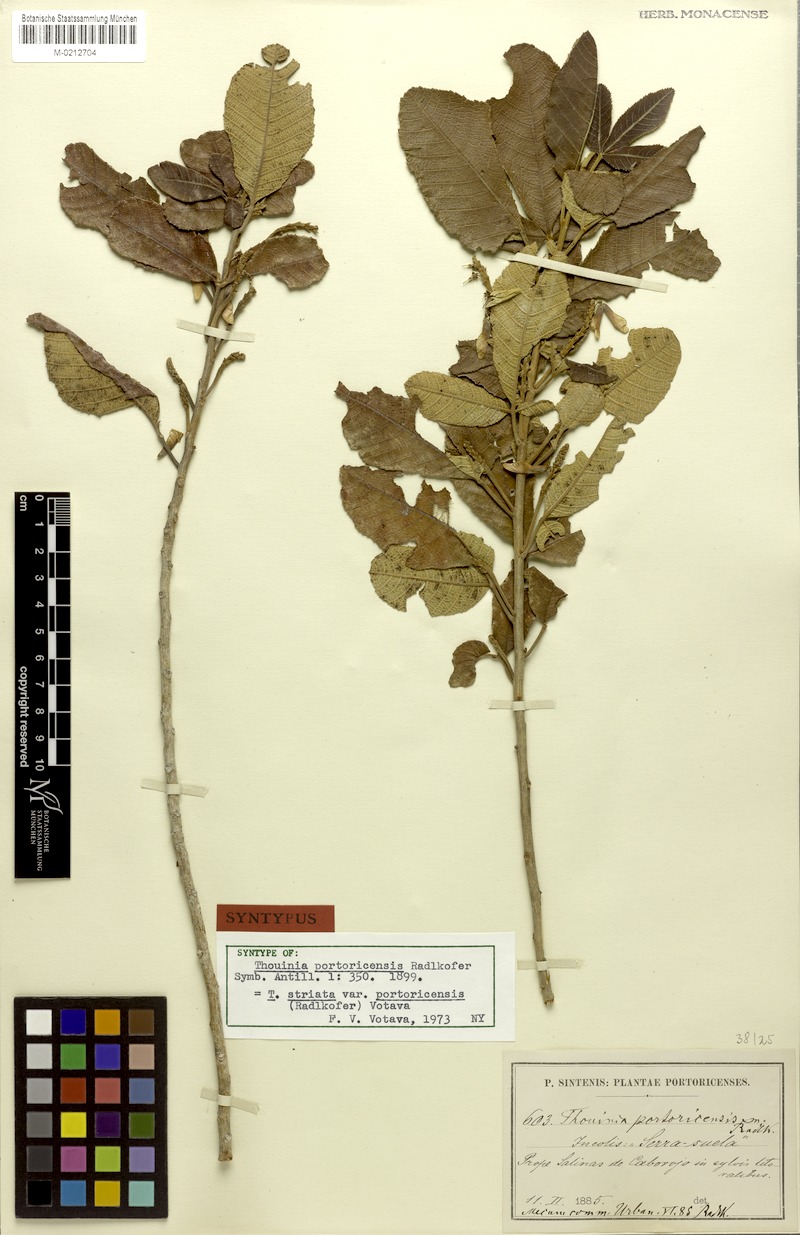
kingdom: Plantae
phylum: Tracheophyta
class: Magnoliopsida
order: Sapindales
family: Sapindaceae
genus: Thouinia
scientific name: Thouinia striata
